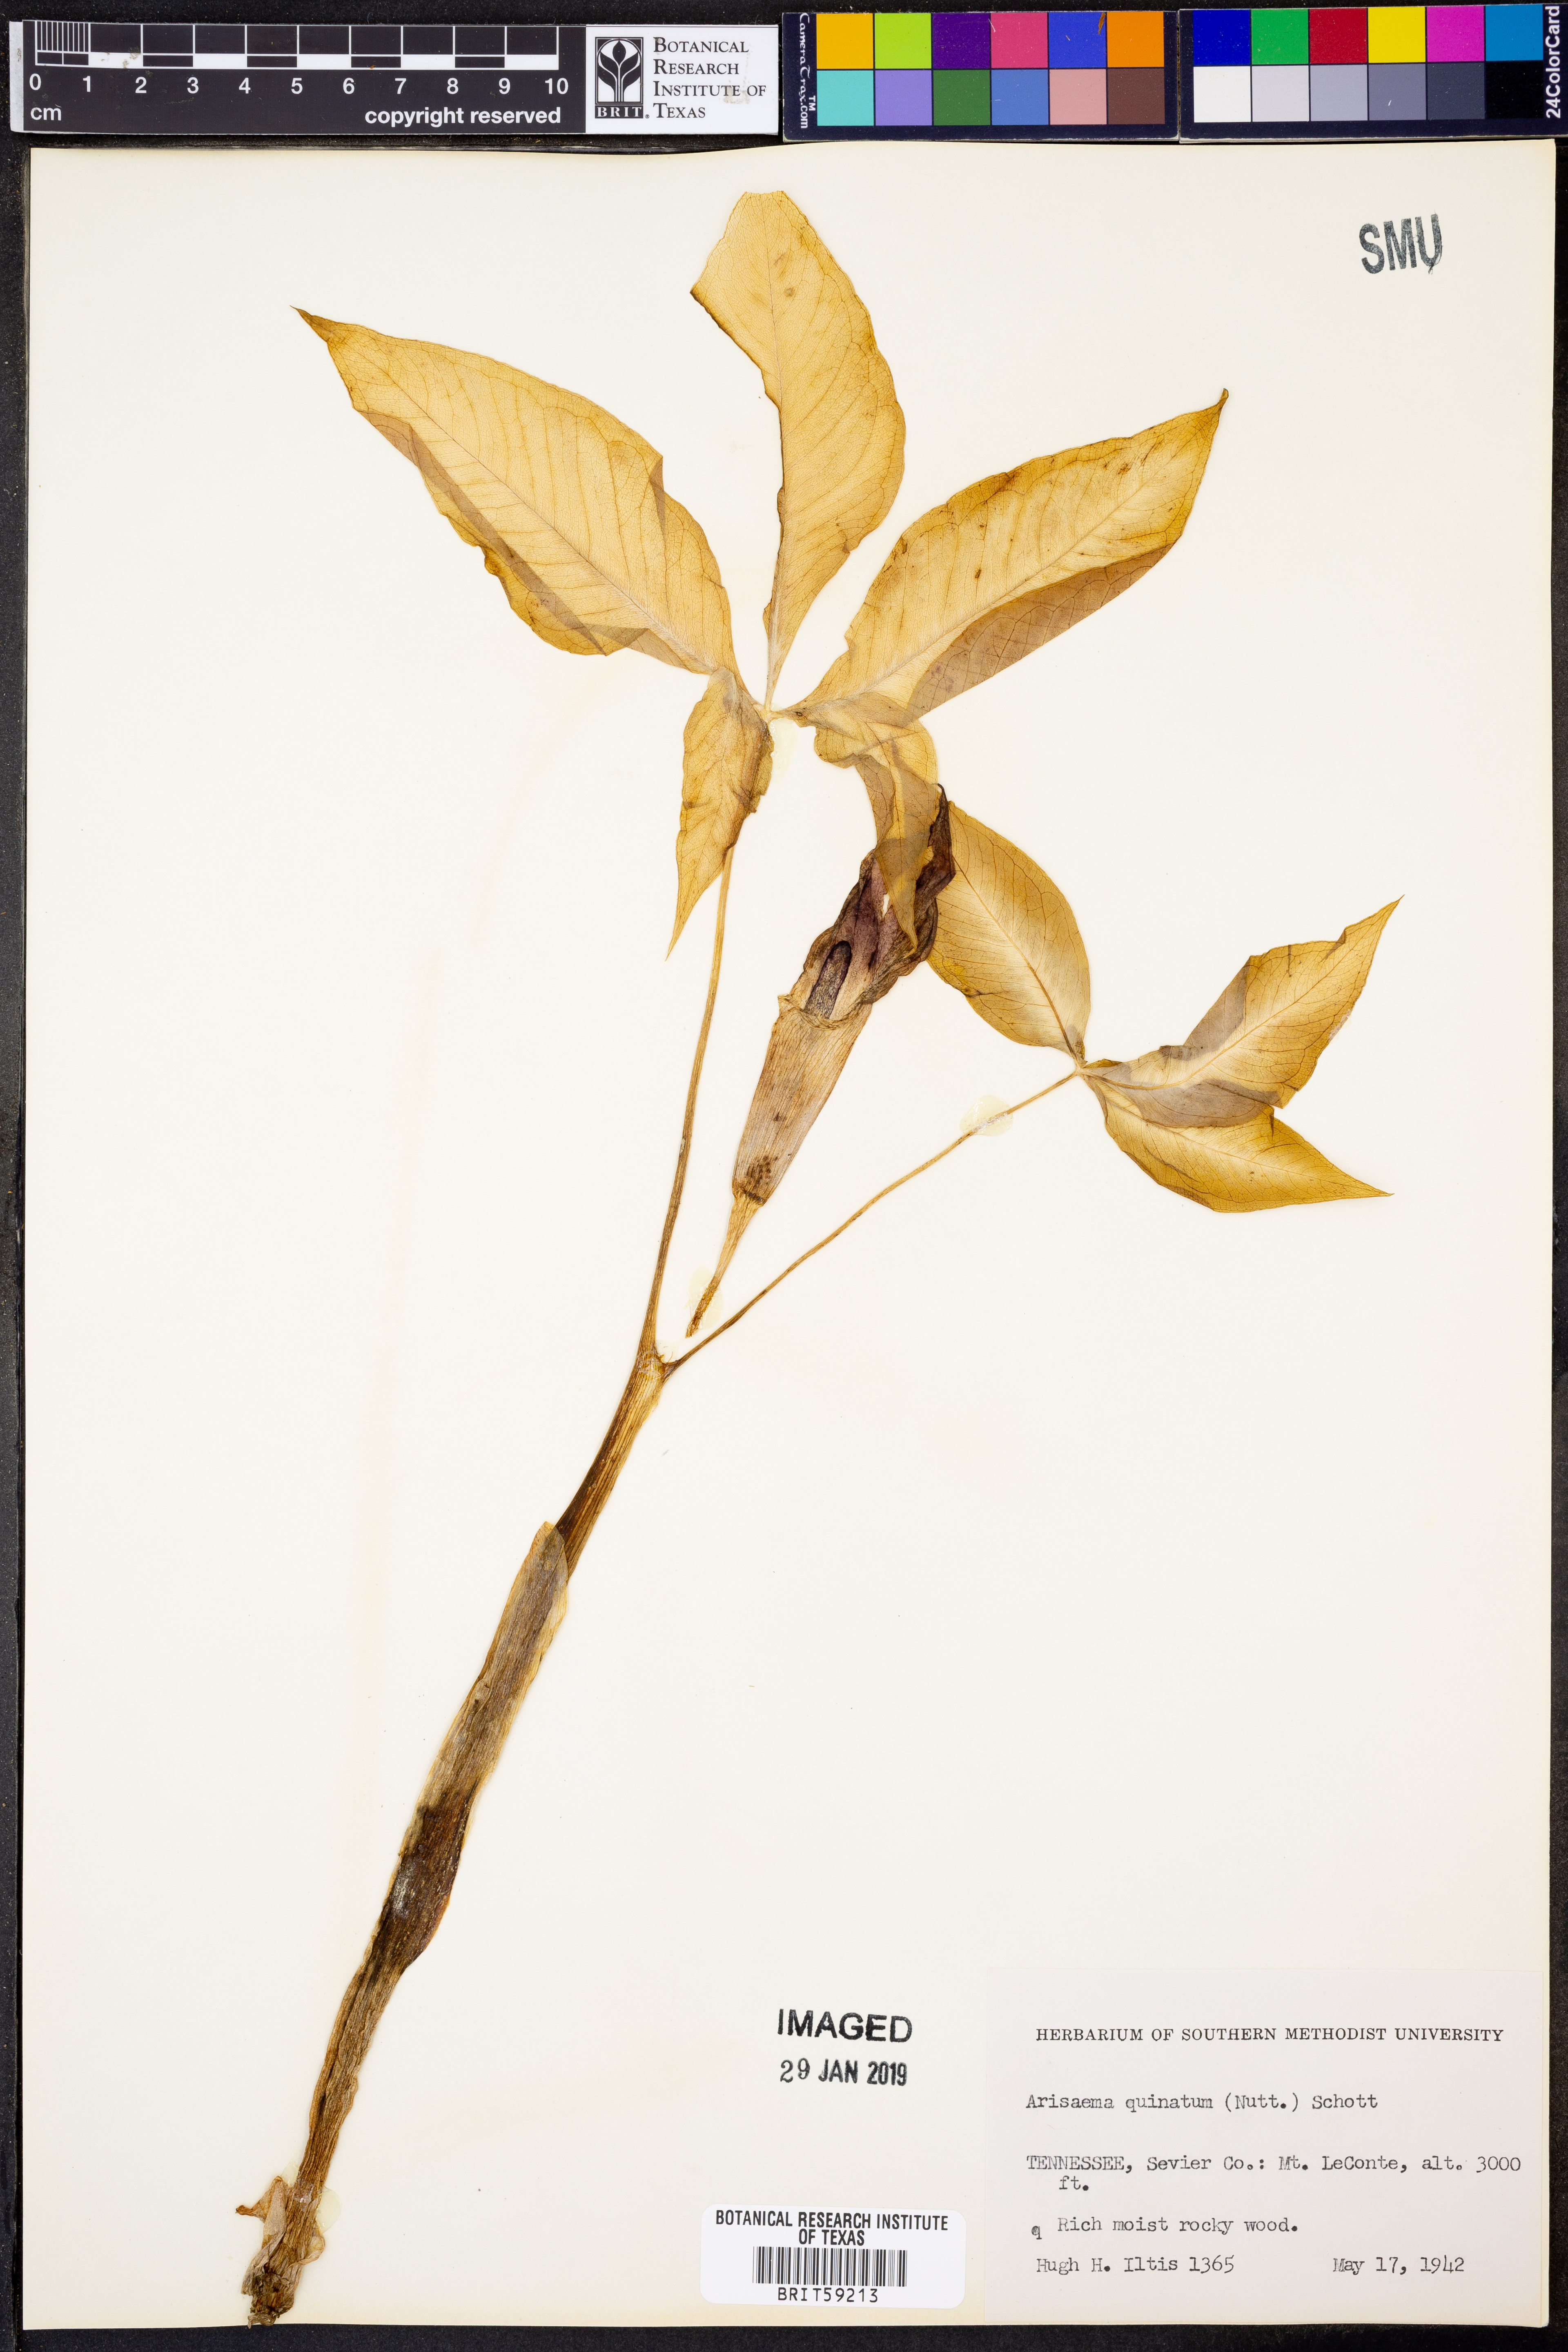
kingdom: Plantae
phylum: Tracheophyta
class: Liliopsida
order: Alismatales
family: Araceae
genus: Arisaema
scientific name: Arisaema quinatum
